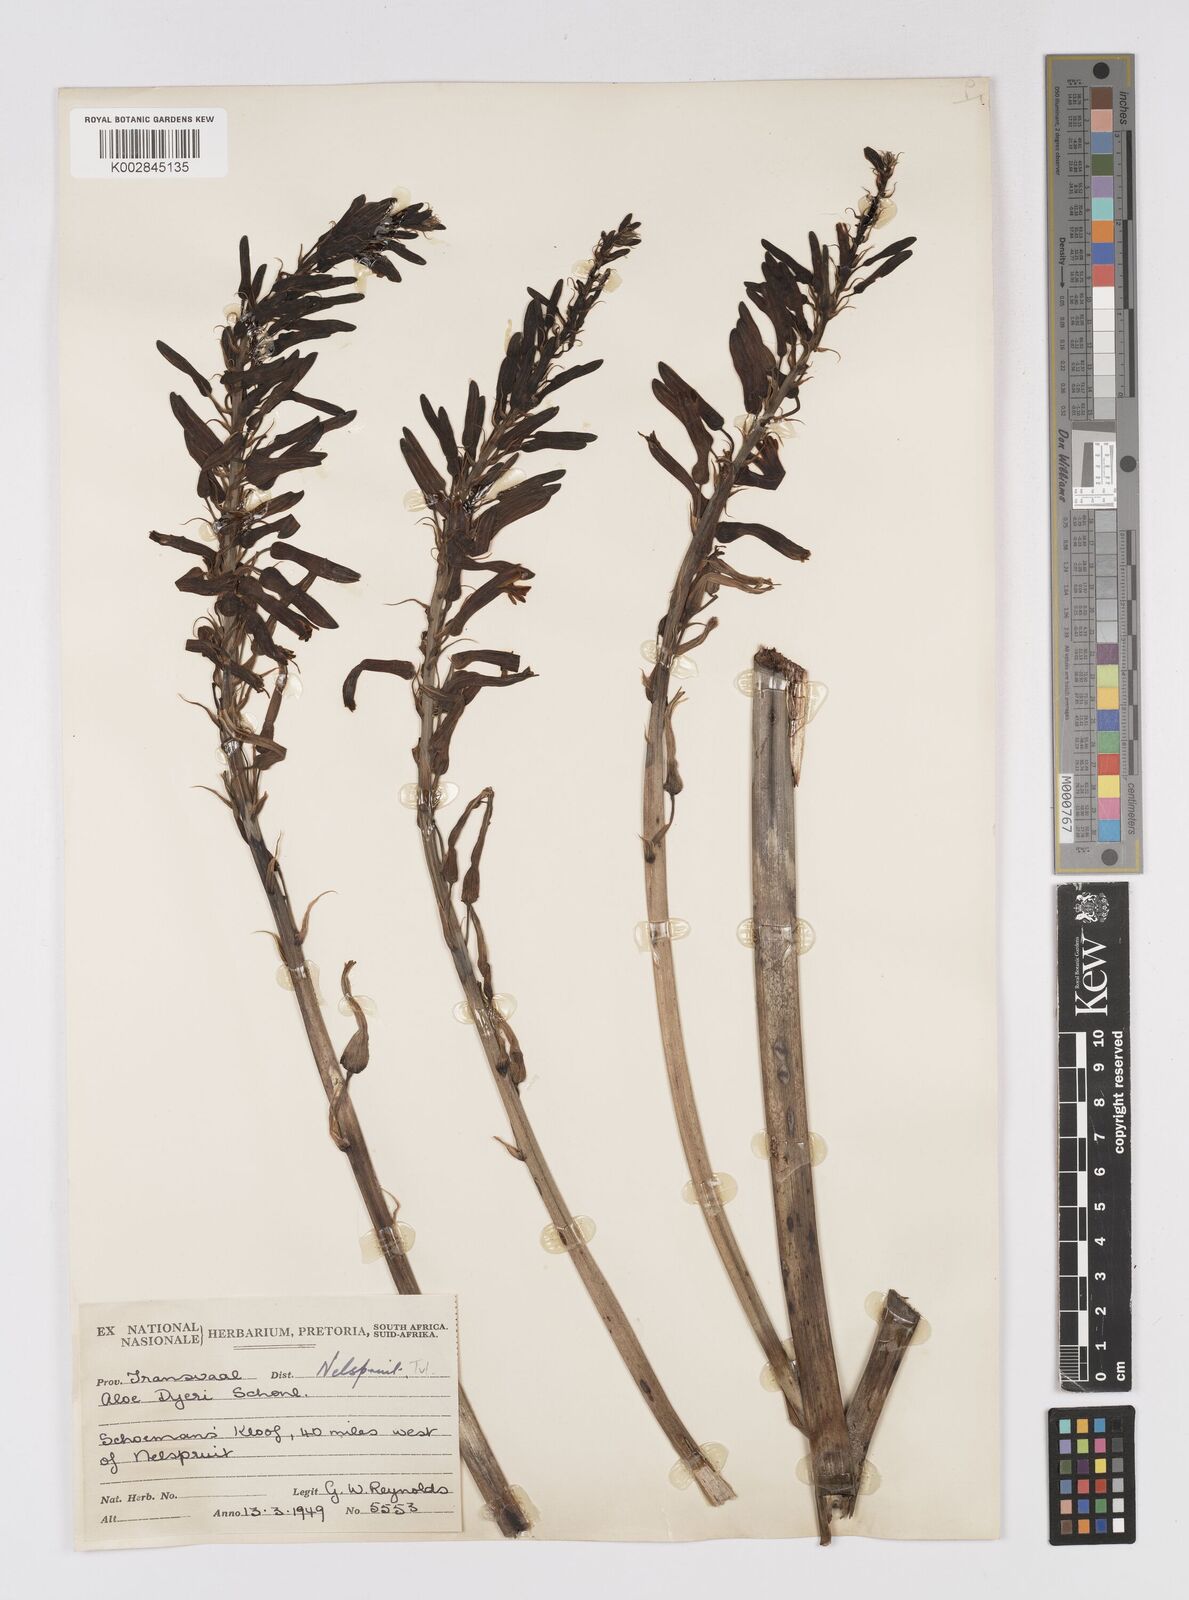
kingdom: Plantae
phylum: Tracheophyta
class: Liliopsida
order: Asparagales
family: Asphodelaceae
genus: Aloe
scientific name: Aloe dyeri
